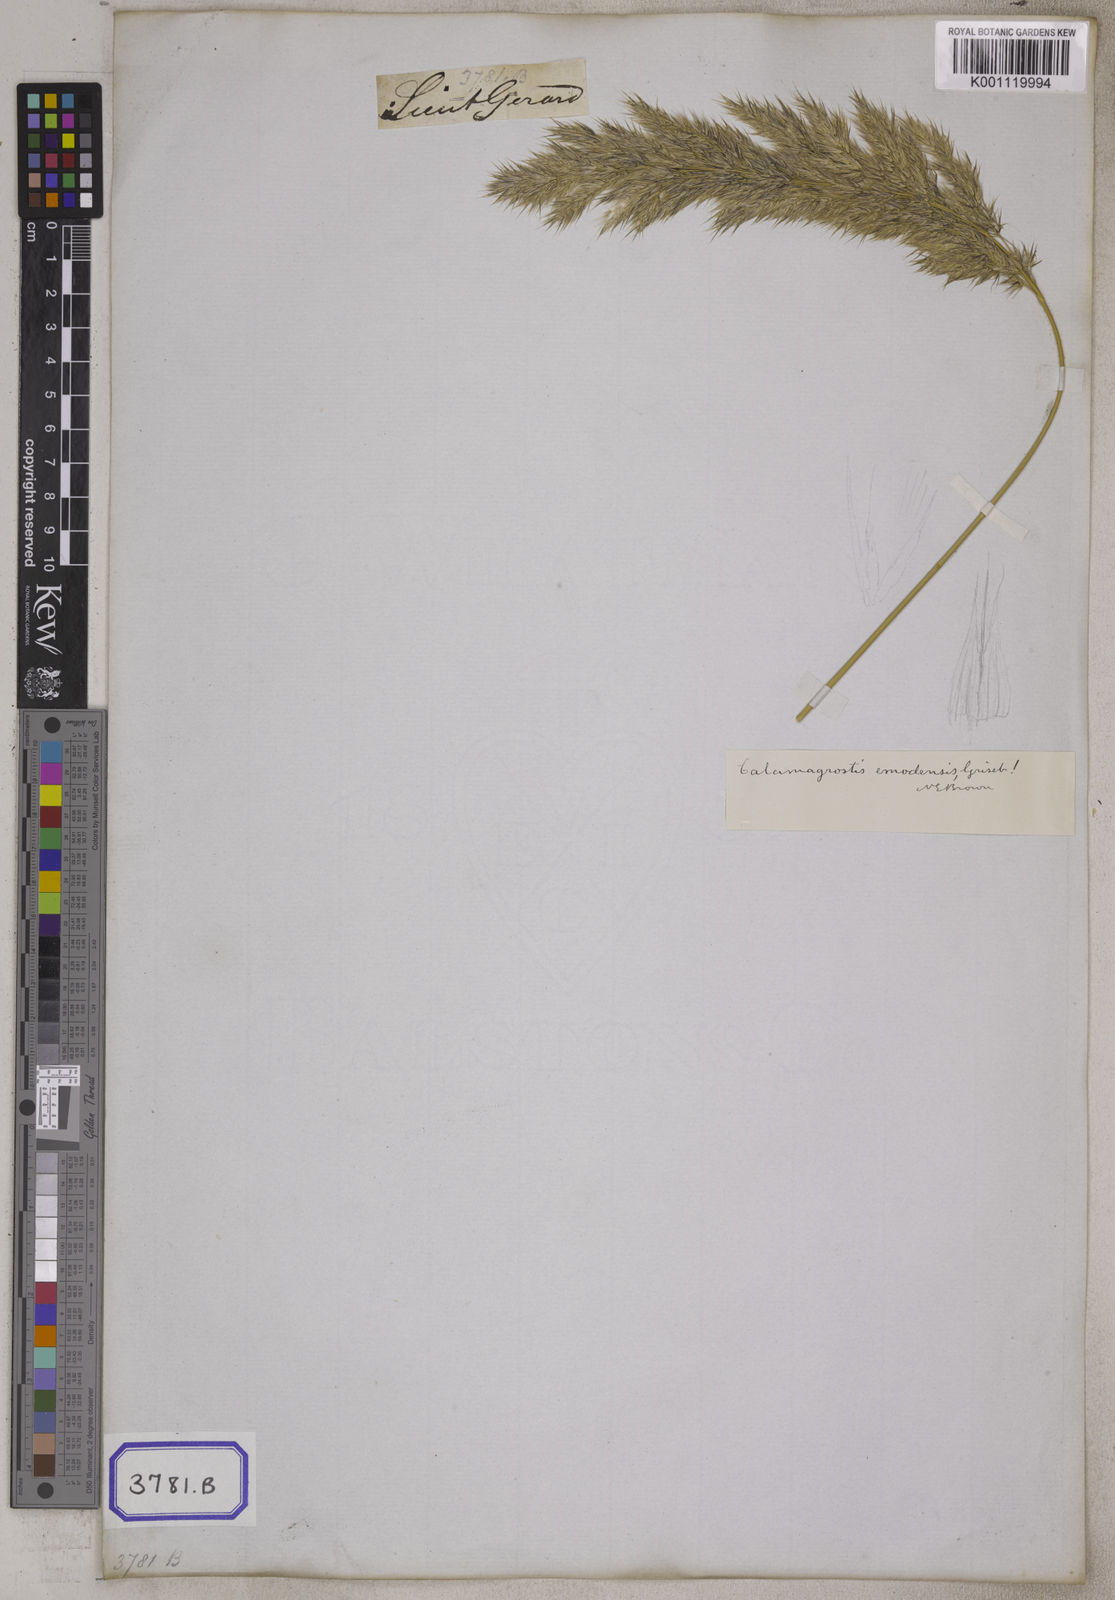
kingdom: Plantae
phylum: Tracheophyta
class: Liliopsida
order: Poales
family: Poaceae
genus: Calamagrostis
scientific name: Calamagrostis
